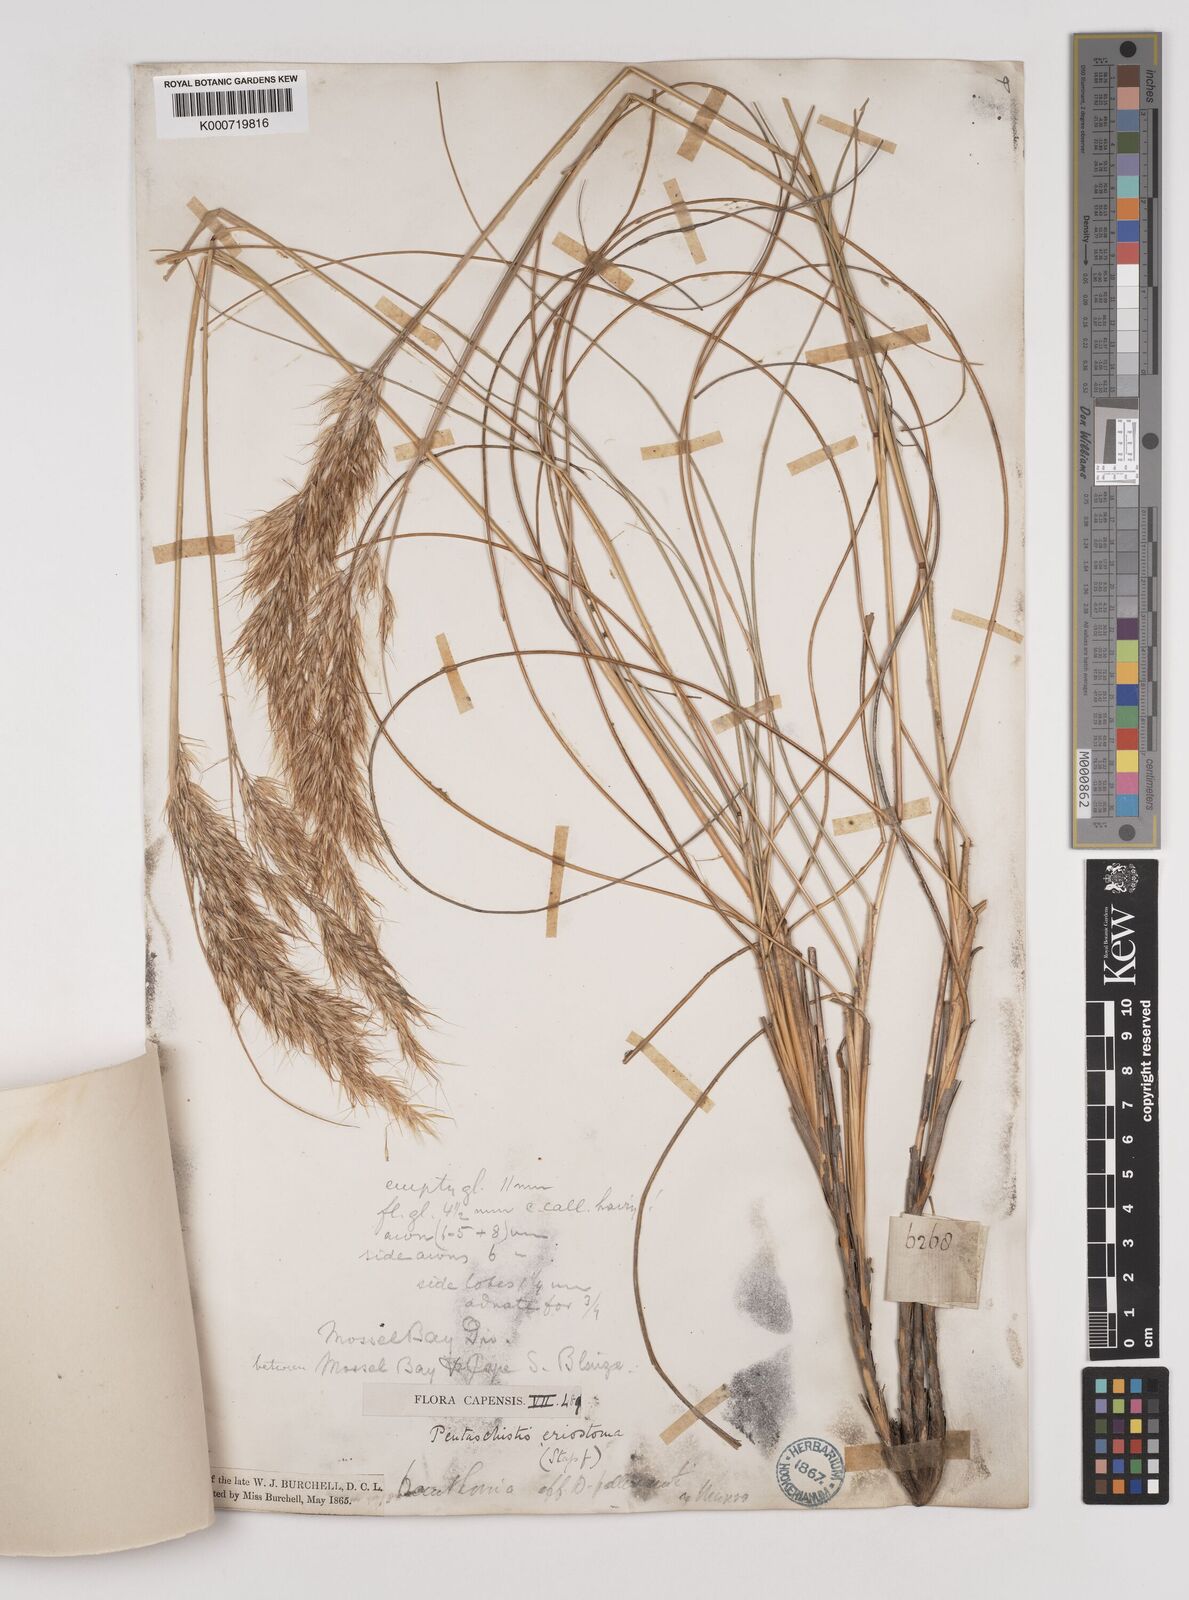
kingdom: Plantae
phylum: Tracheophyta
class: Liliopsida
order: Poales
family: Poaceae
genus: Pentameris
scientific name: Pentameris eriostoma
